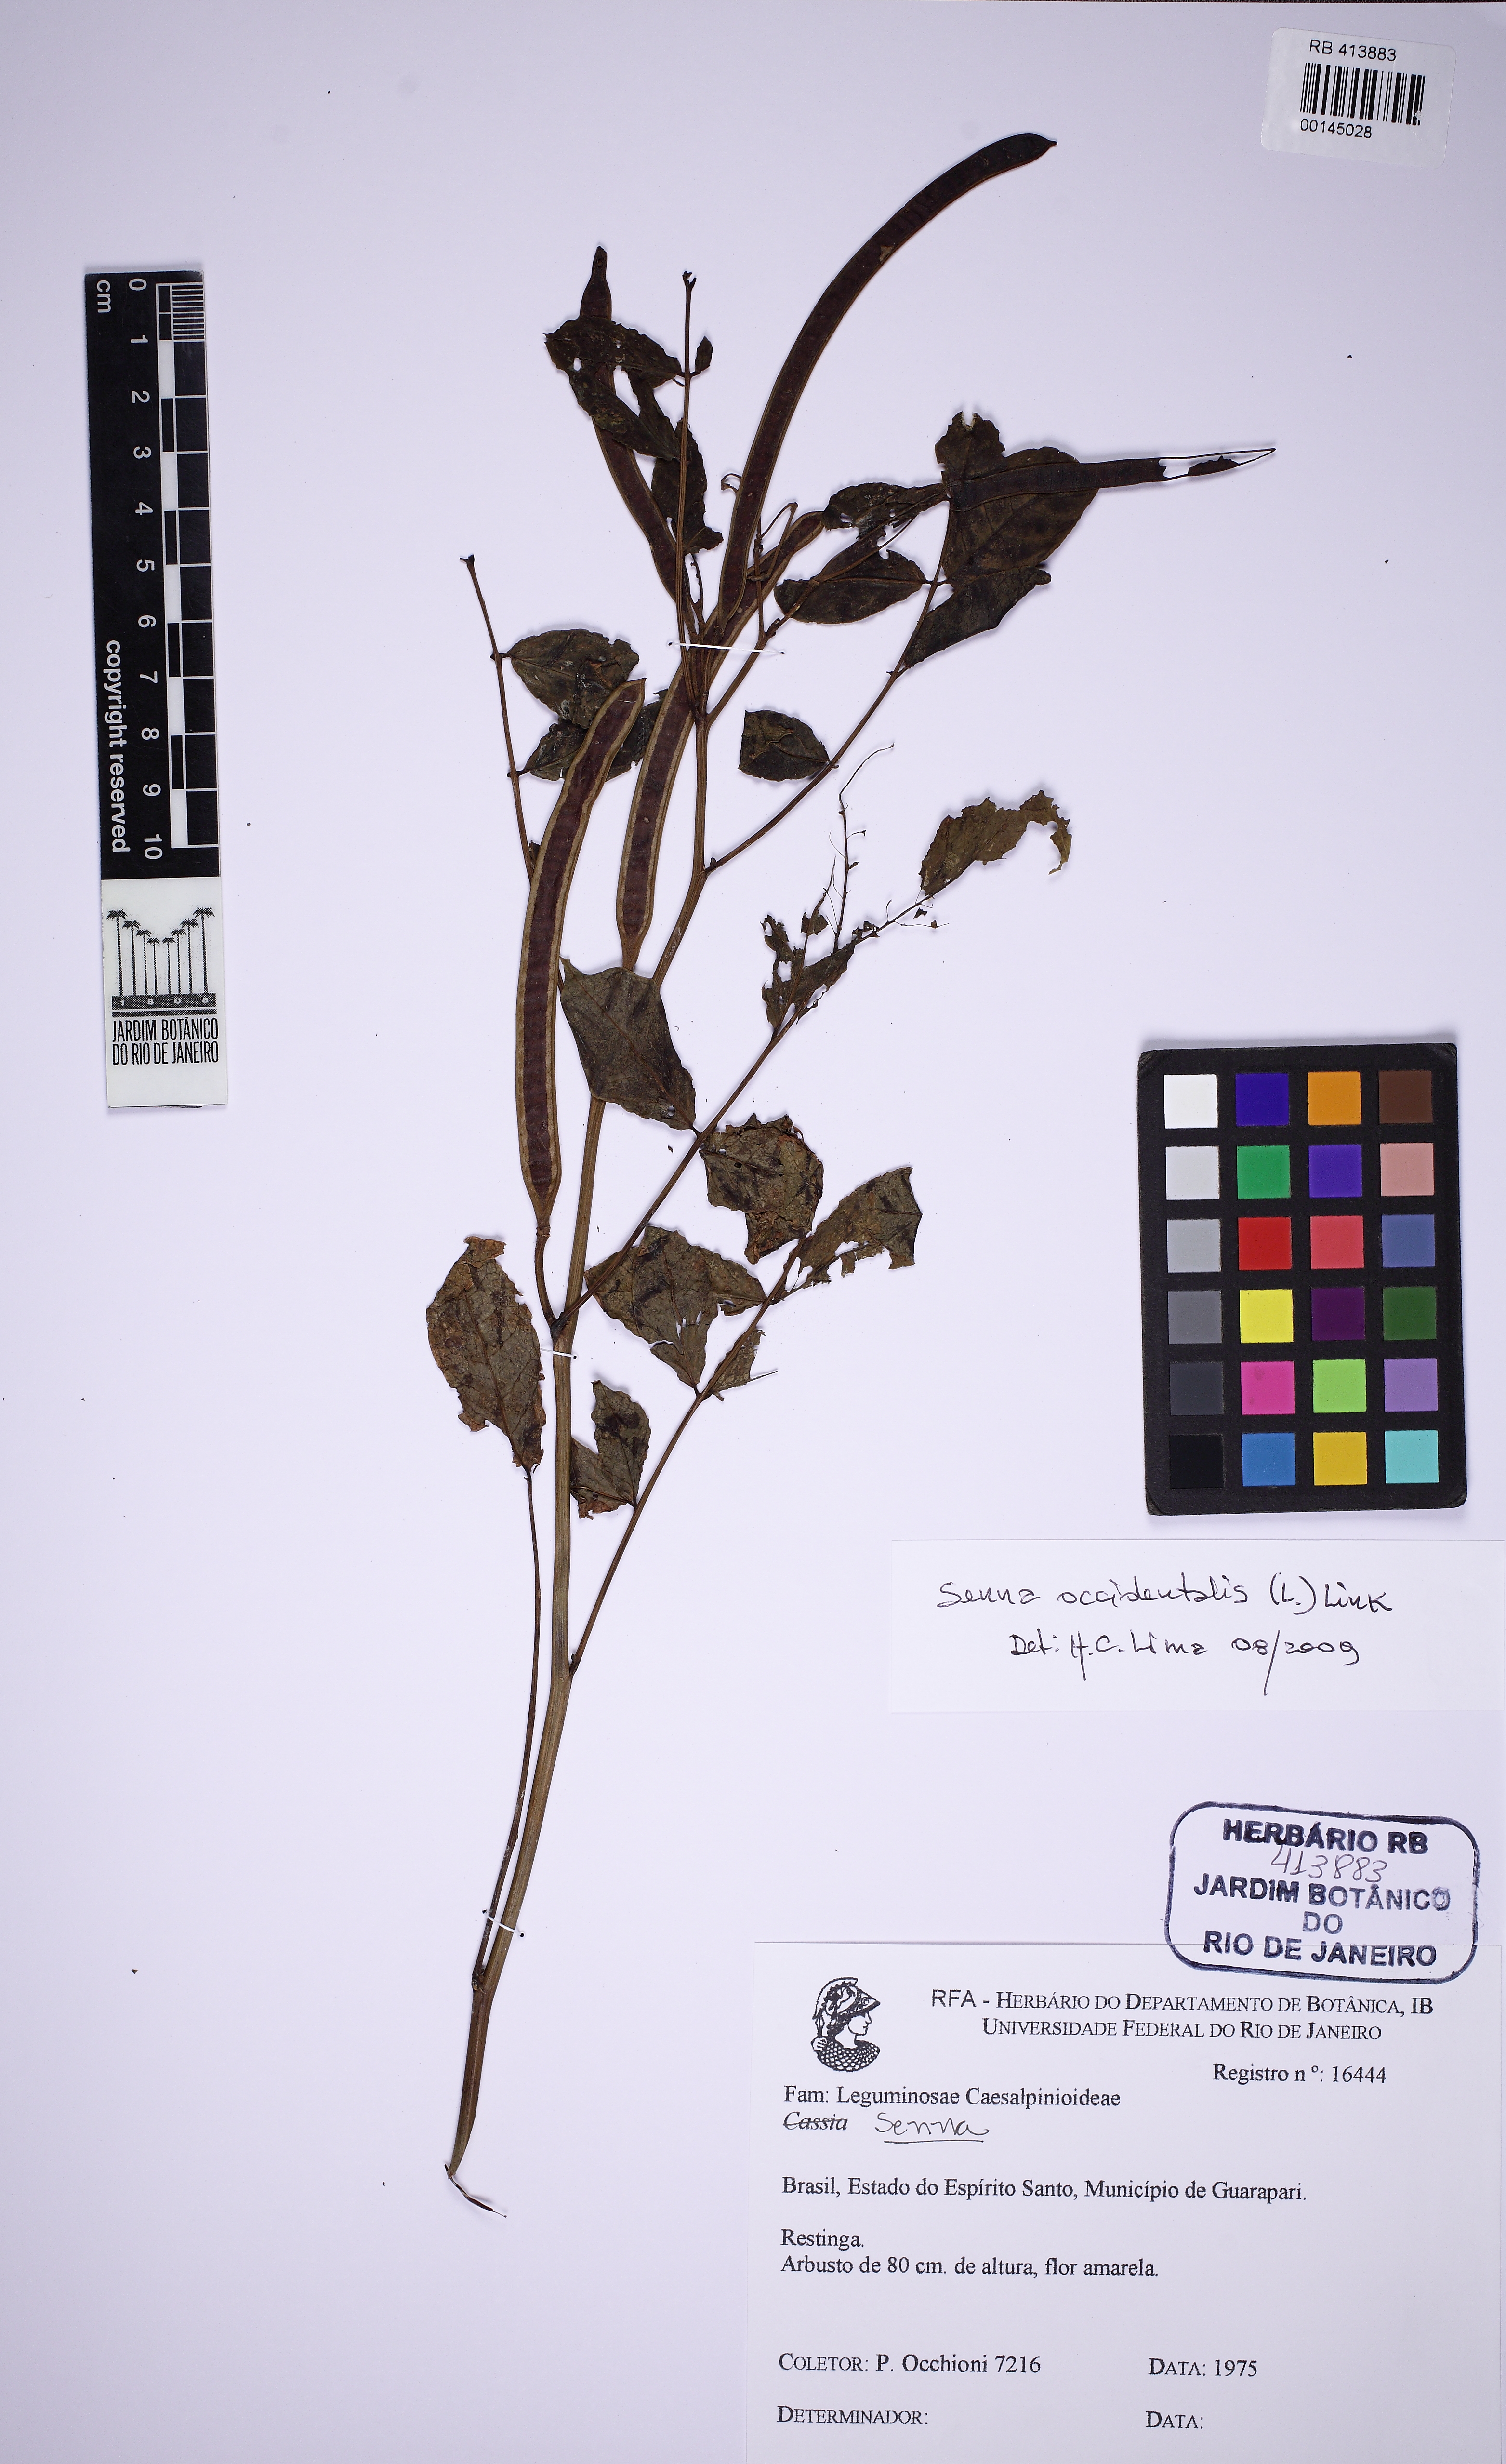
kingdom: Plantae
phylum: Tracheophyta
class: Magnoliopsida
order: Fabales
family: Fabaceae
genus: Senna
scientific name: Senna
